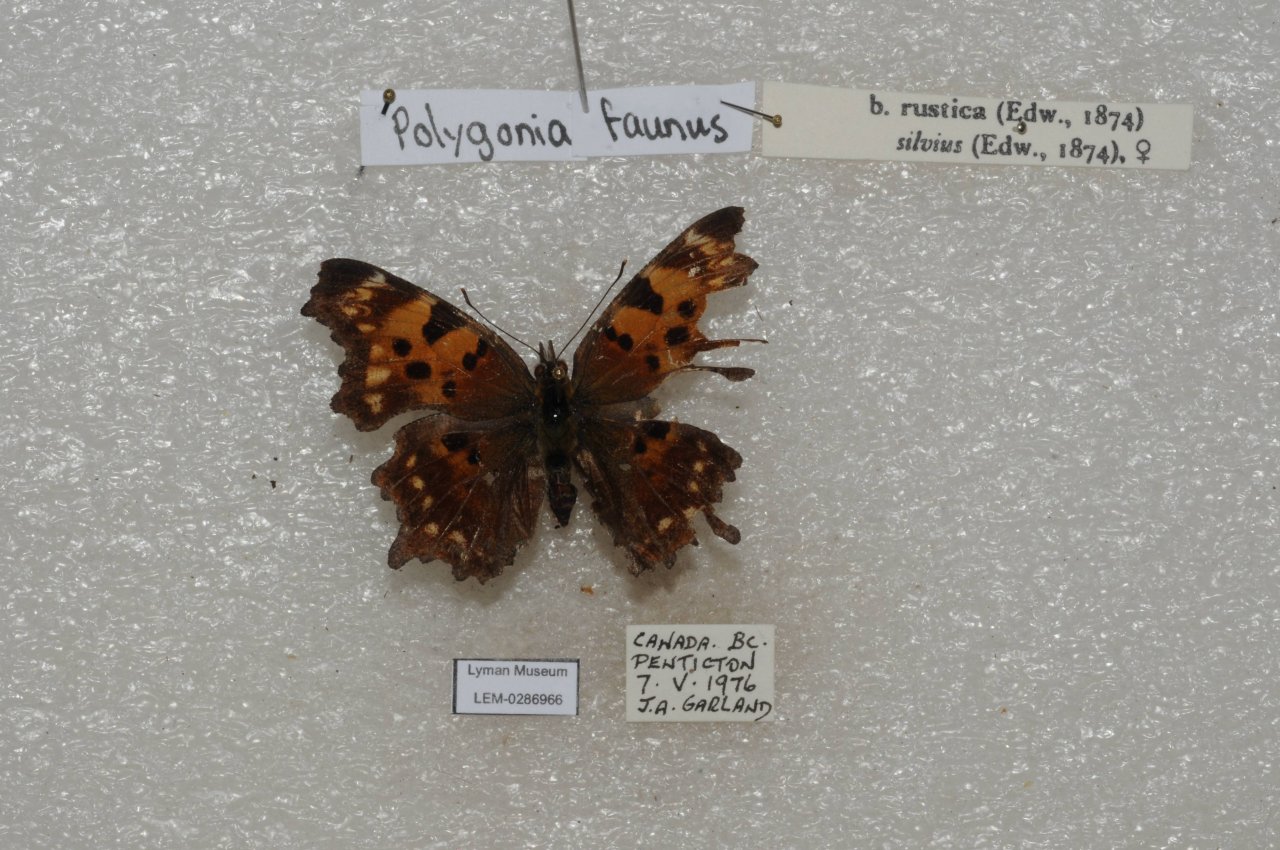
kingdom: Animalia
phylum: Arthropoda
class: Insecta
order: Lepidoptera
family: Nymphalidae
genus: Polygonia
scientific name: Polygonia faunus
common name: Green Comma
